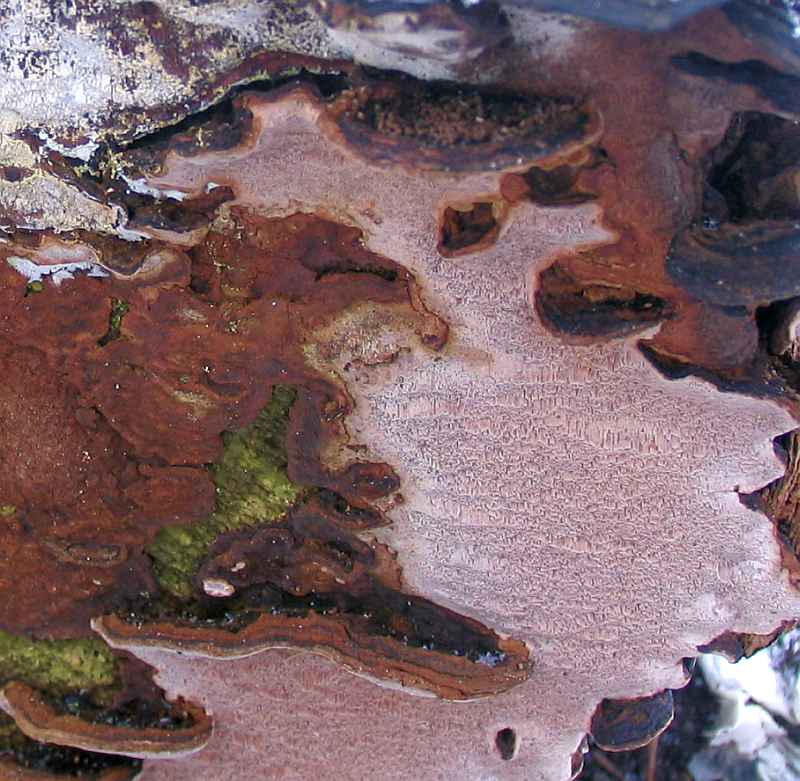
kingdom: Fungi
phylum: Basidiomycota
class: Agaricomycetes
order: Hymenochaetales
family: Hymenochaetaceae
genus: Phellinopsis
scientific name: Phellinopsis conchata
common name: pile-ildporesvamp
